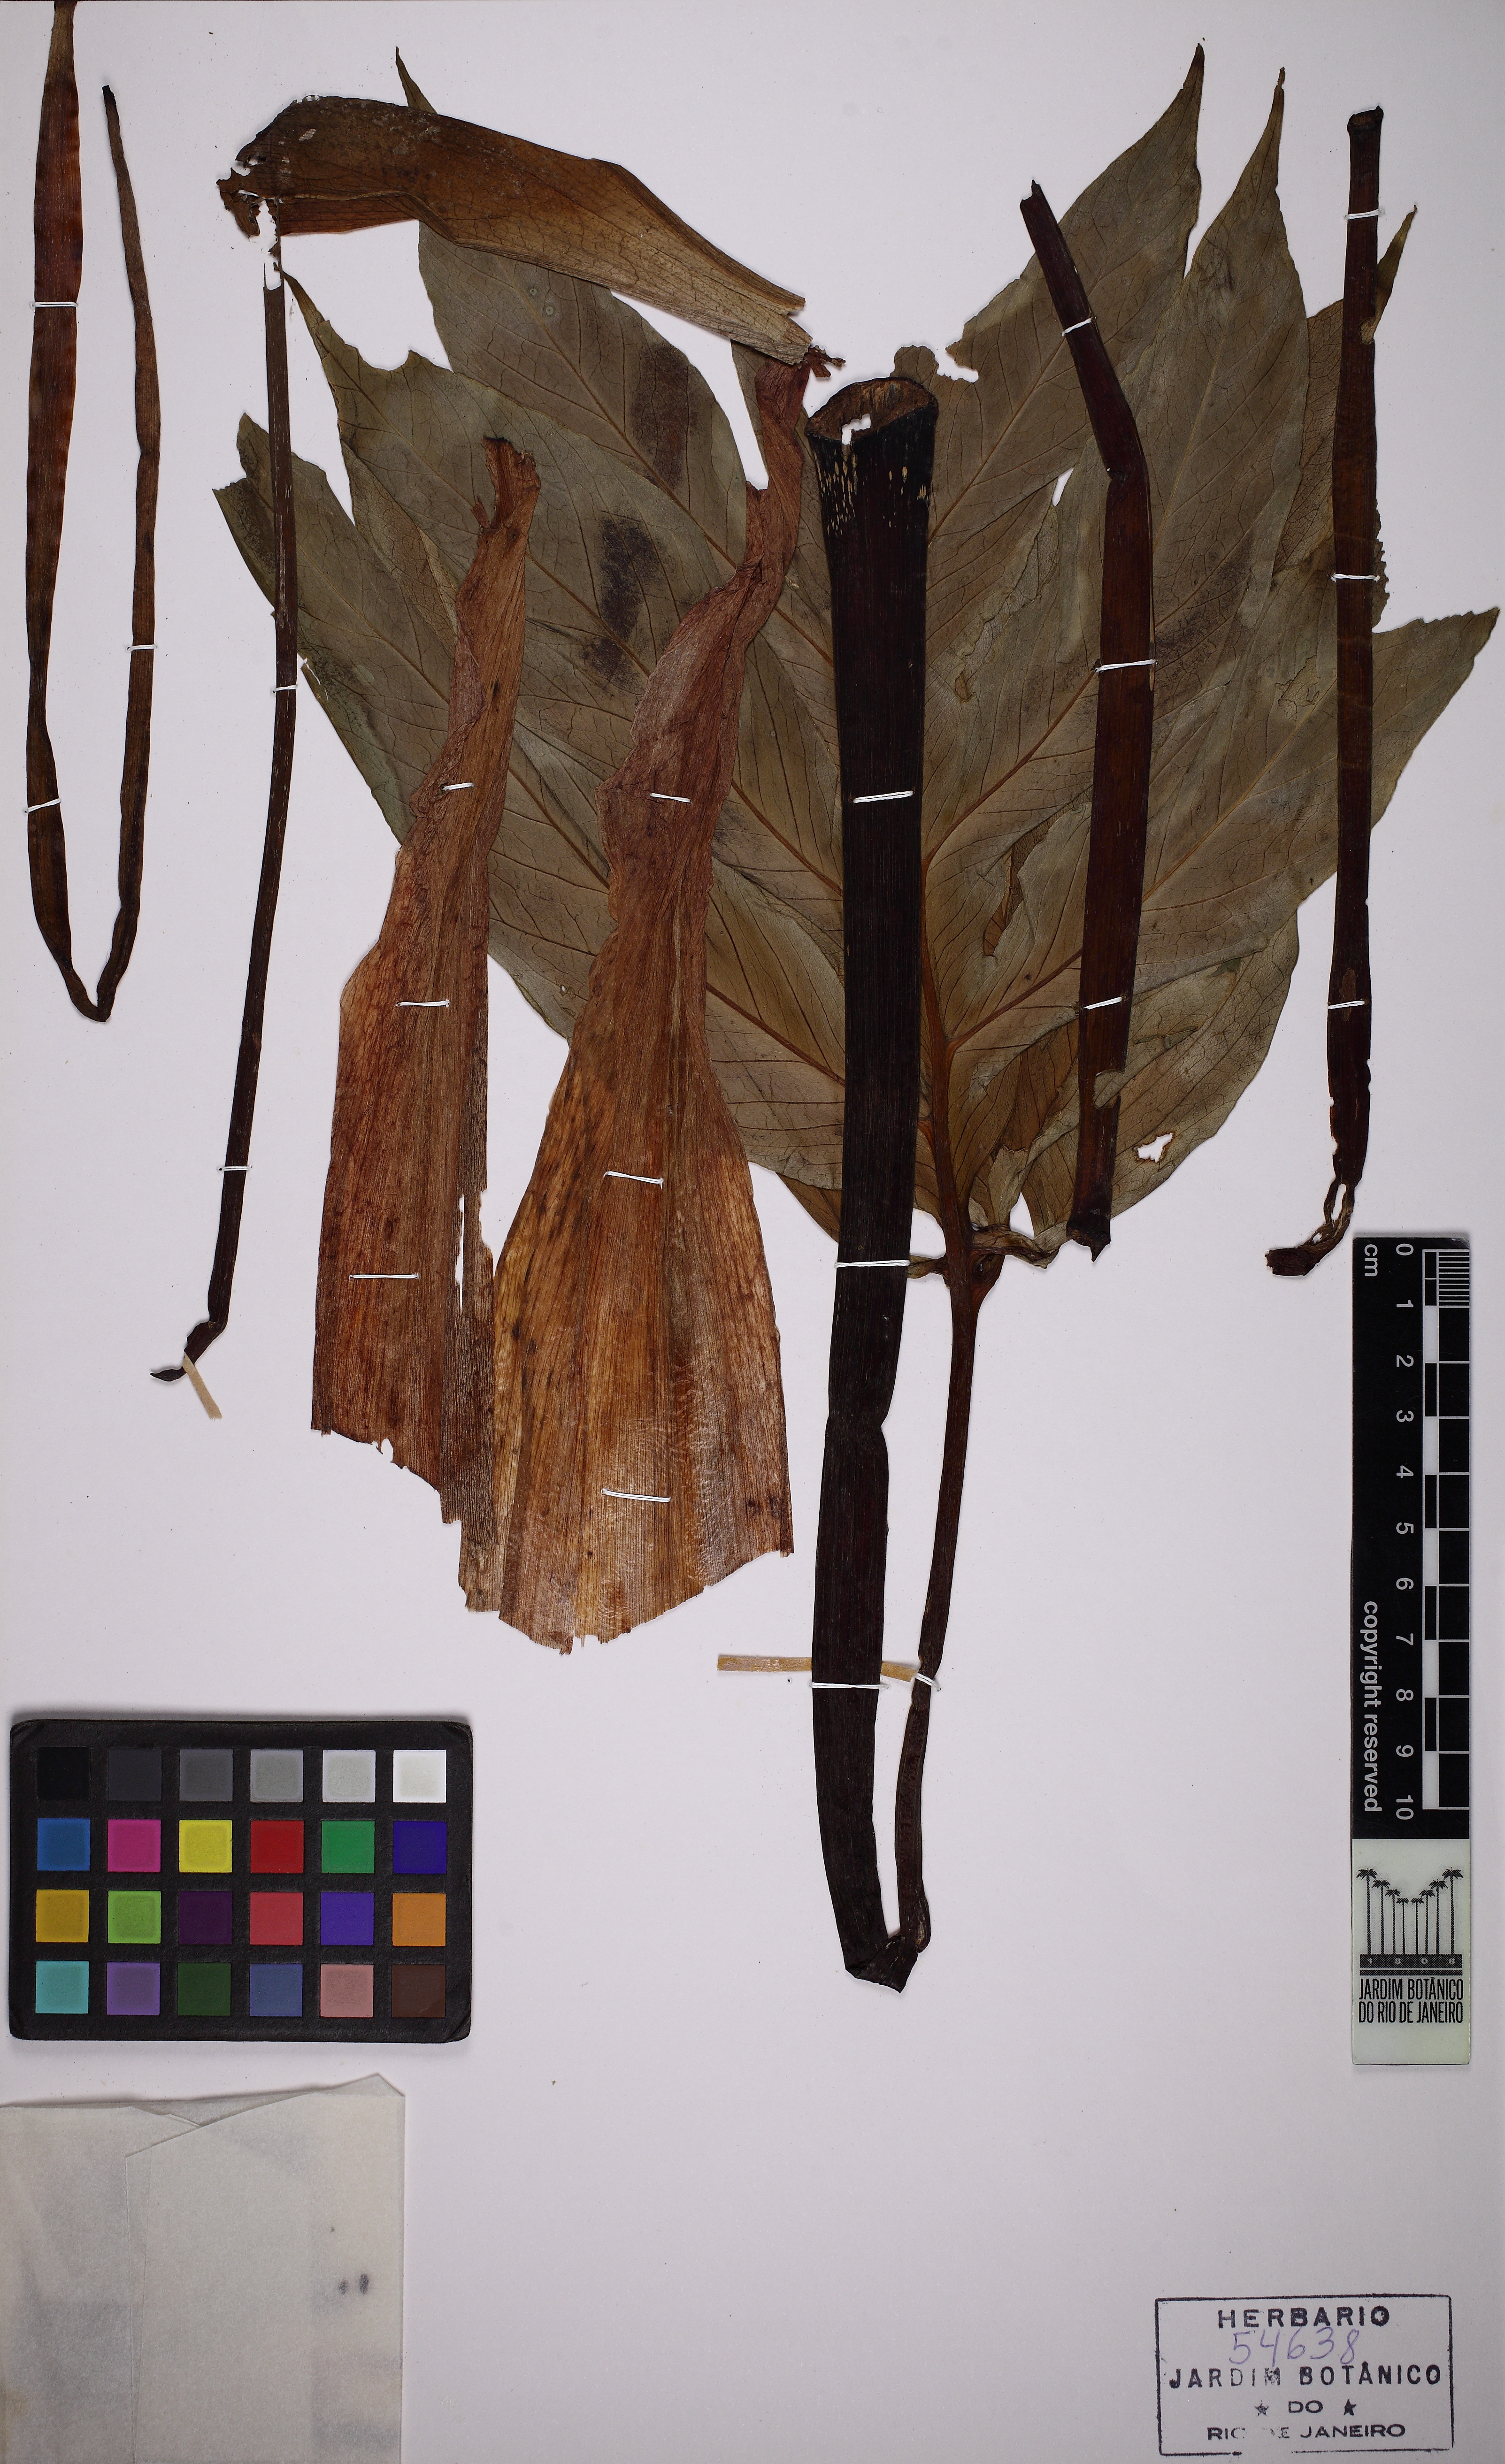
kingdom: Plantae
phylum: Tracheophyta
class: Liliopsida
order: Alismatales
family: Araceae
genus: Asterostigma
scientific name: Asterostigma luridum
